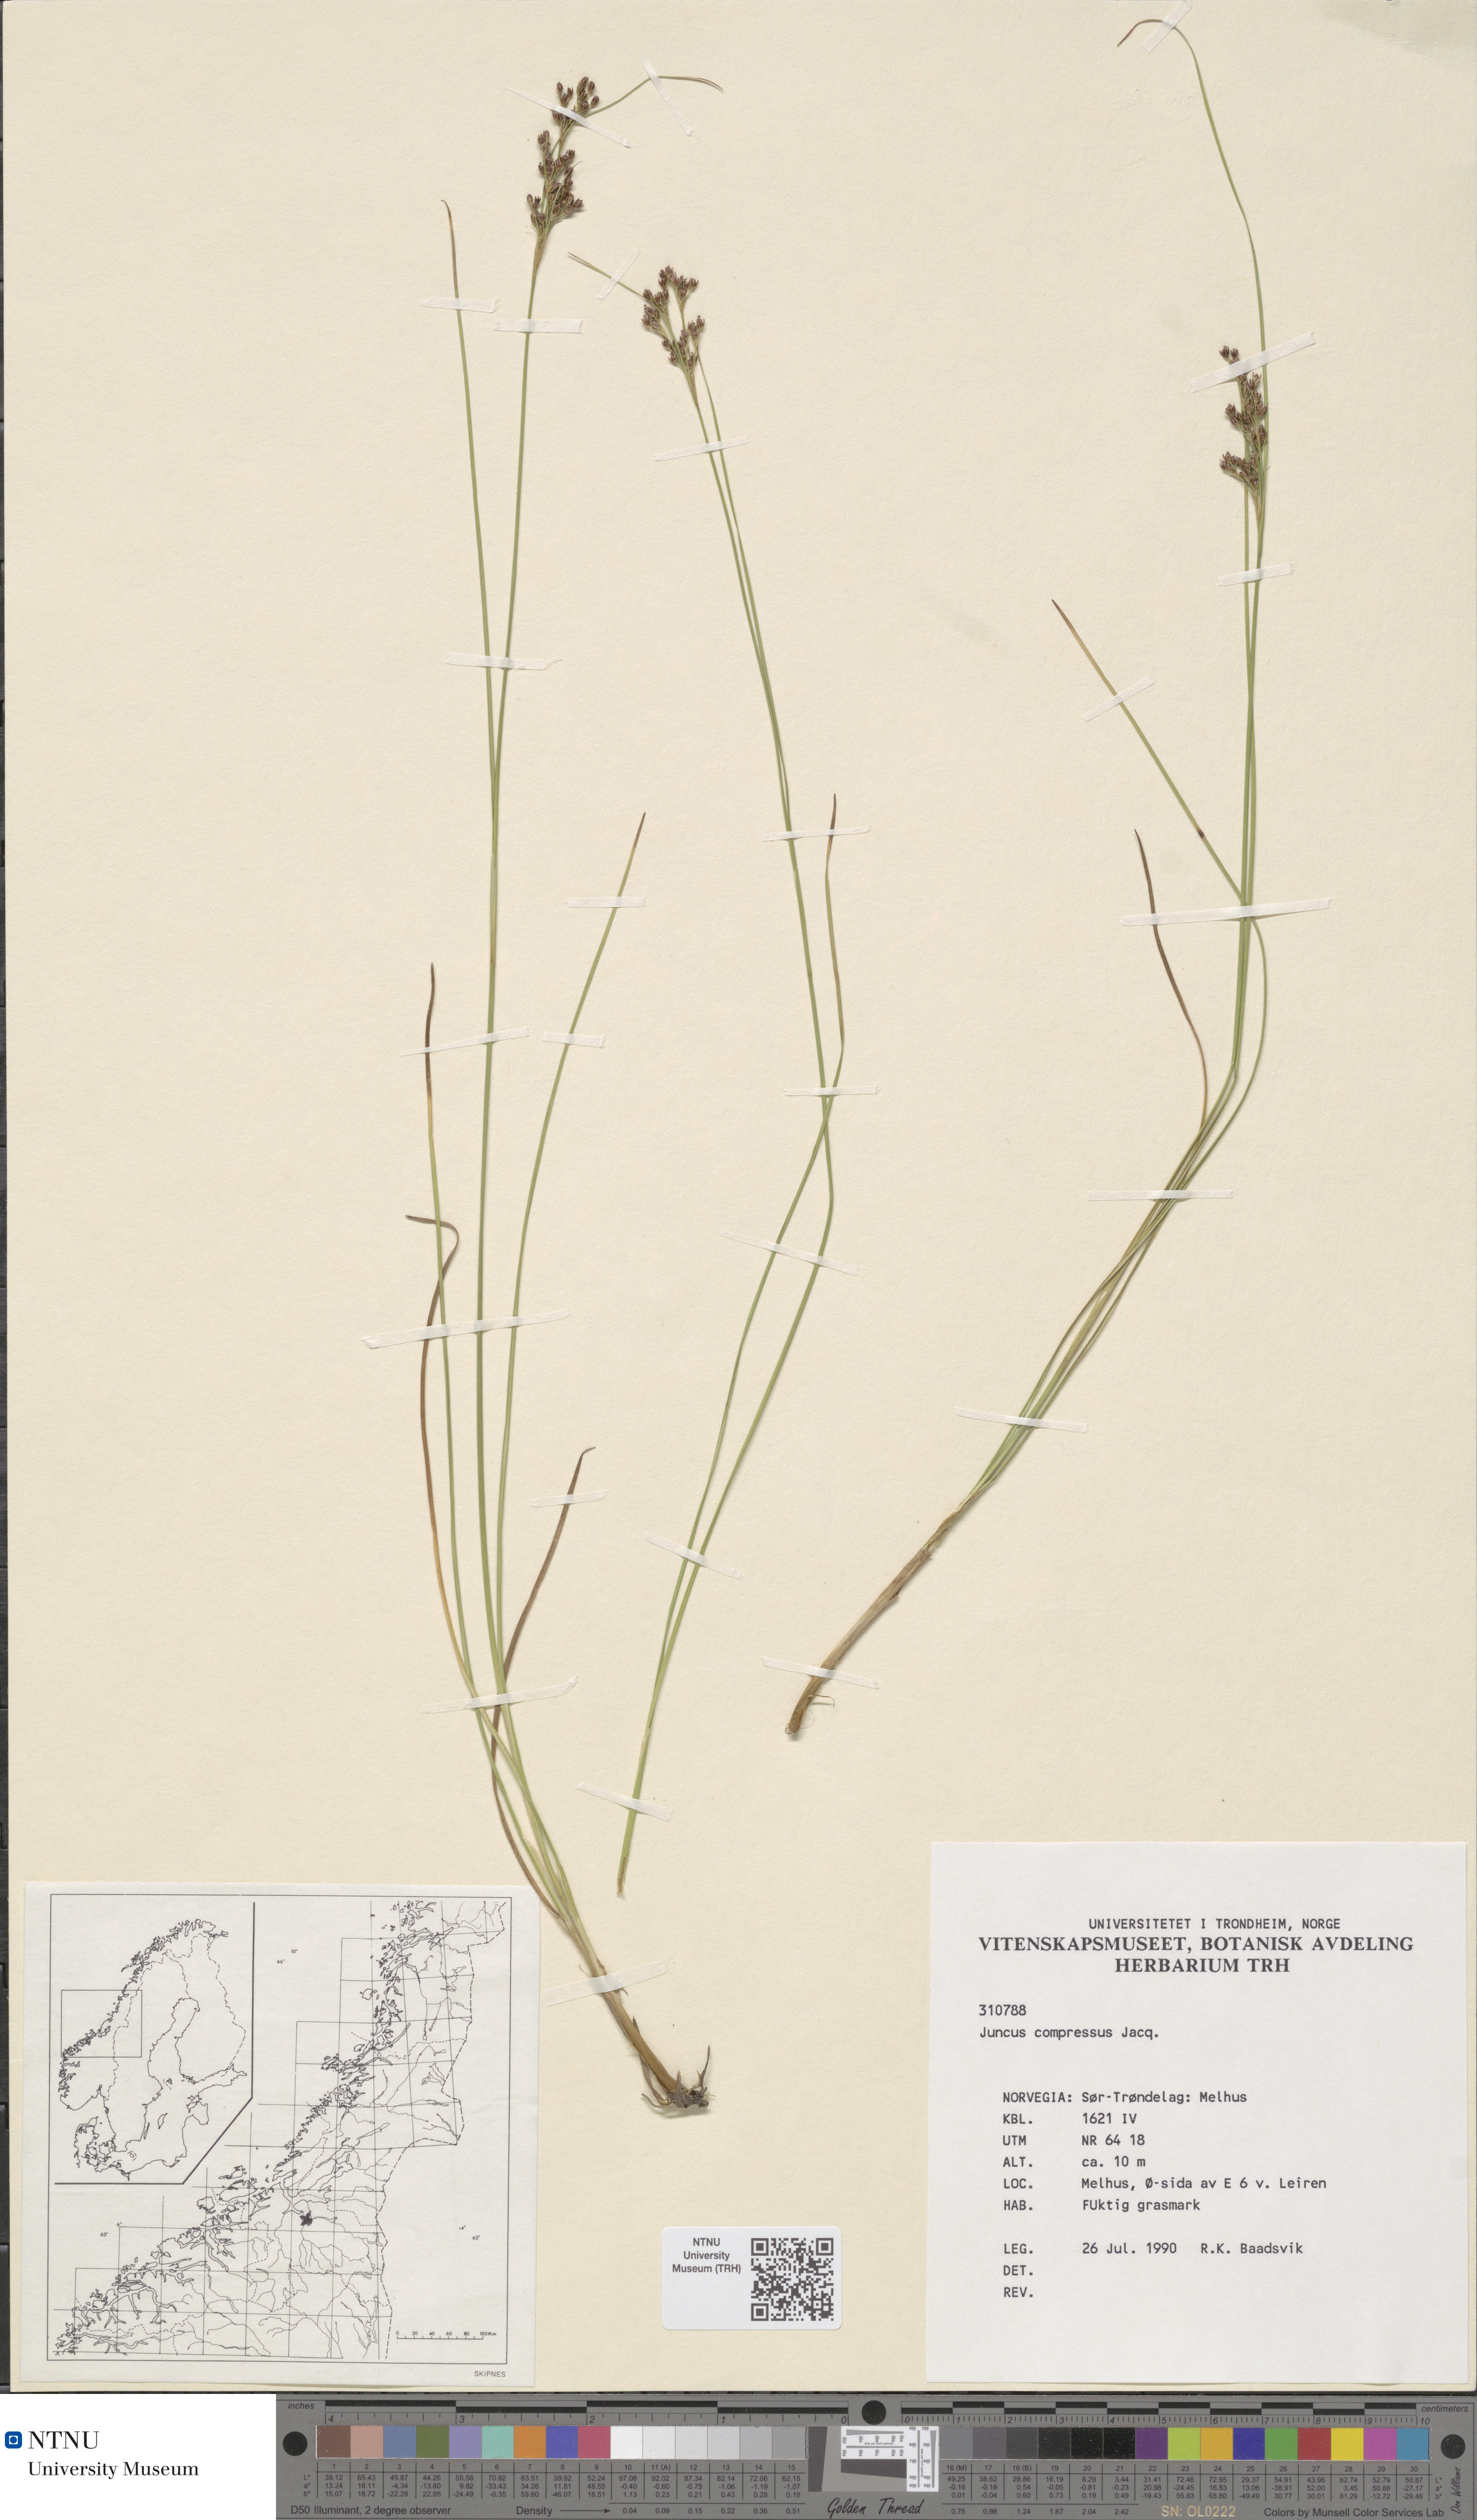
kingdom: Plantae
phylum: Tracheophyta
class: Liliopsida
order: Poales
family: Juncaceae
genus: Juncus
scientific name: Juncus compressus
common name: Round-fruited rush
